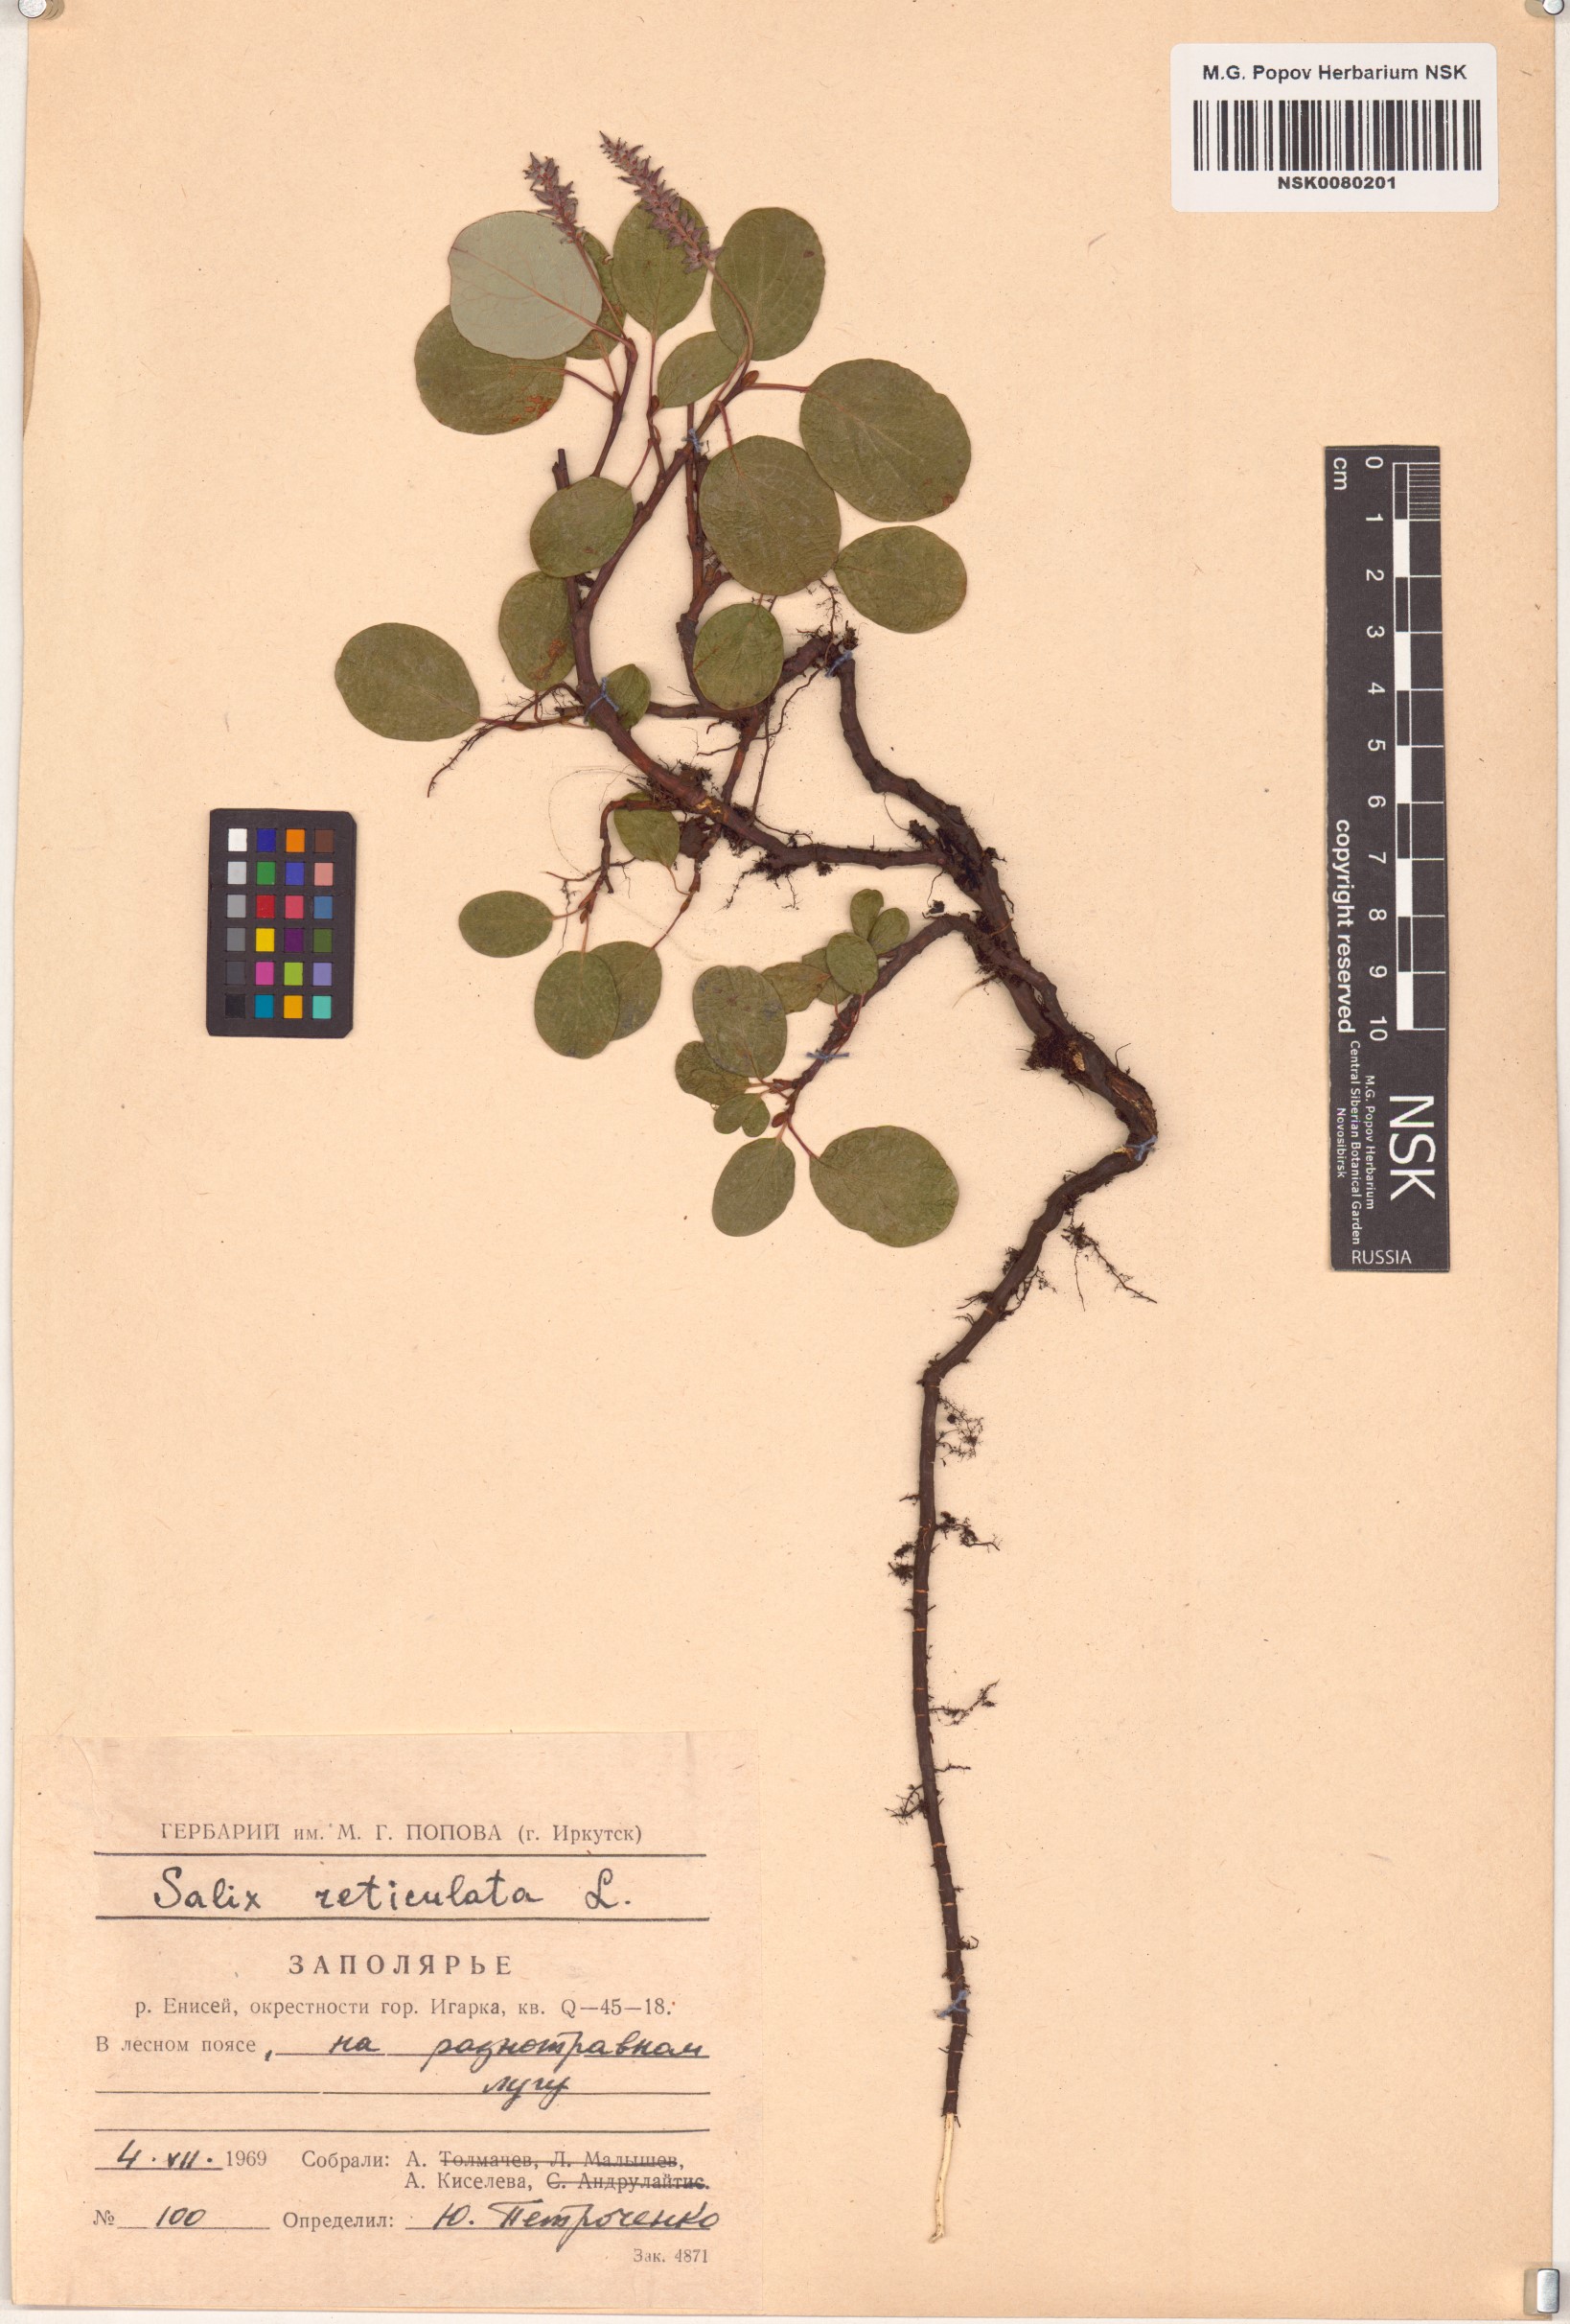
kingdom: Plantae
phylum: Tracheophyta
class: Magnoliopsida
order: Malpighiales
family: Salicaceae
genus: Salix
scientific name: Salix reticulata
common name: Net-leaved willow
